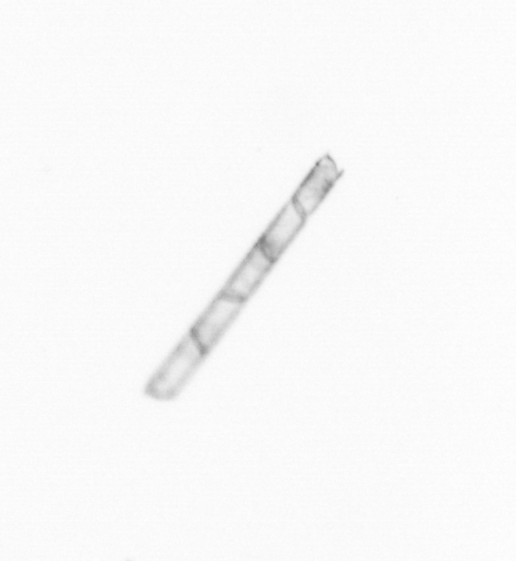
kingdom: Chromista
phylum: Ochrophyta
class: Bacillariophyceae
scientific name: Bacillariophyceae
